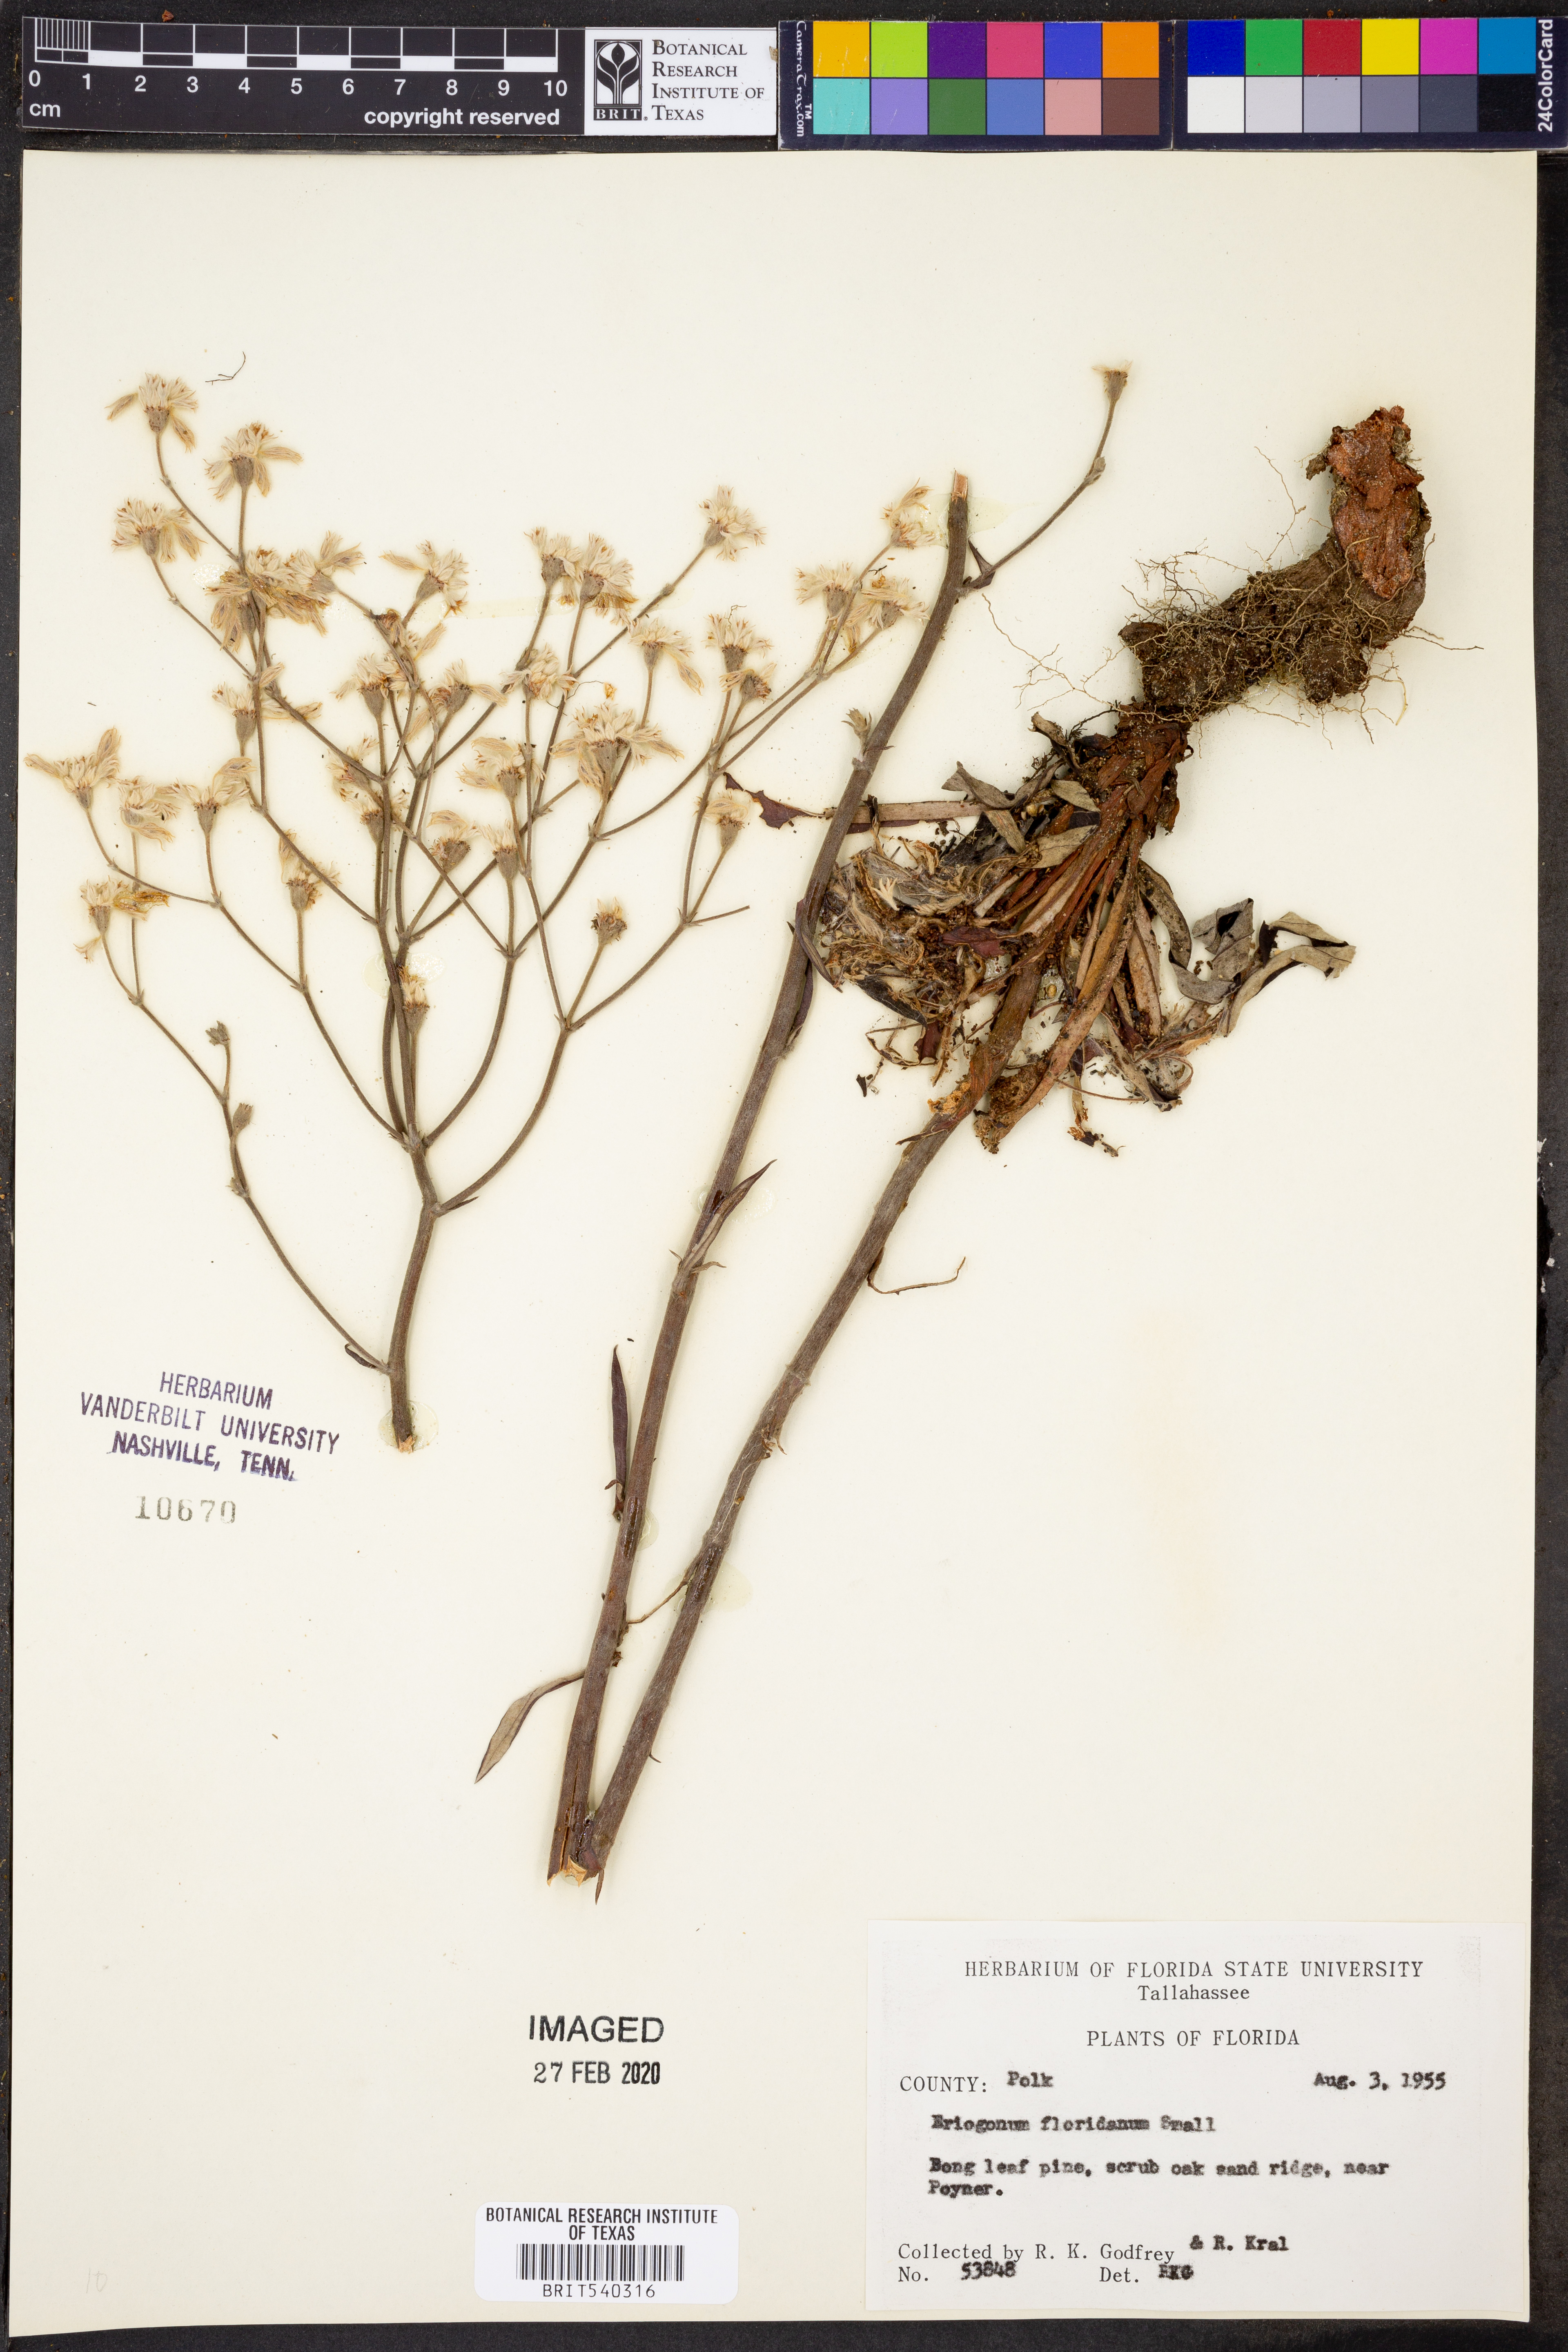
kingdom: Plantae
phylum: Tracheophyta
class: Magnoliopsida
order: Caryophyllales
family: Polygonaceae
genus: Eriogonum
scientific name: Eriogonum longifolium
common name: Longleaf wild buckwheat
